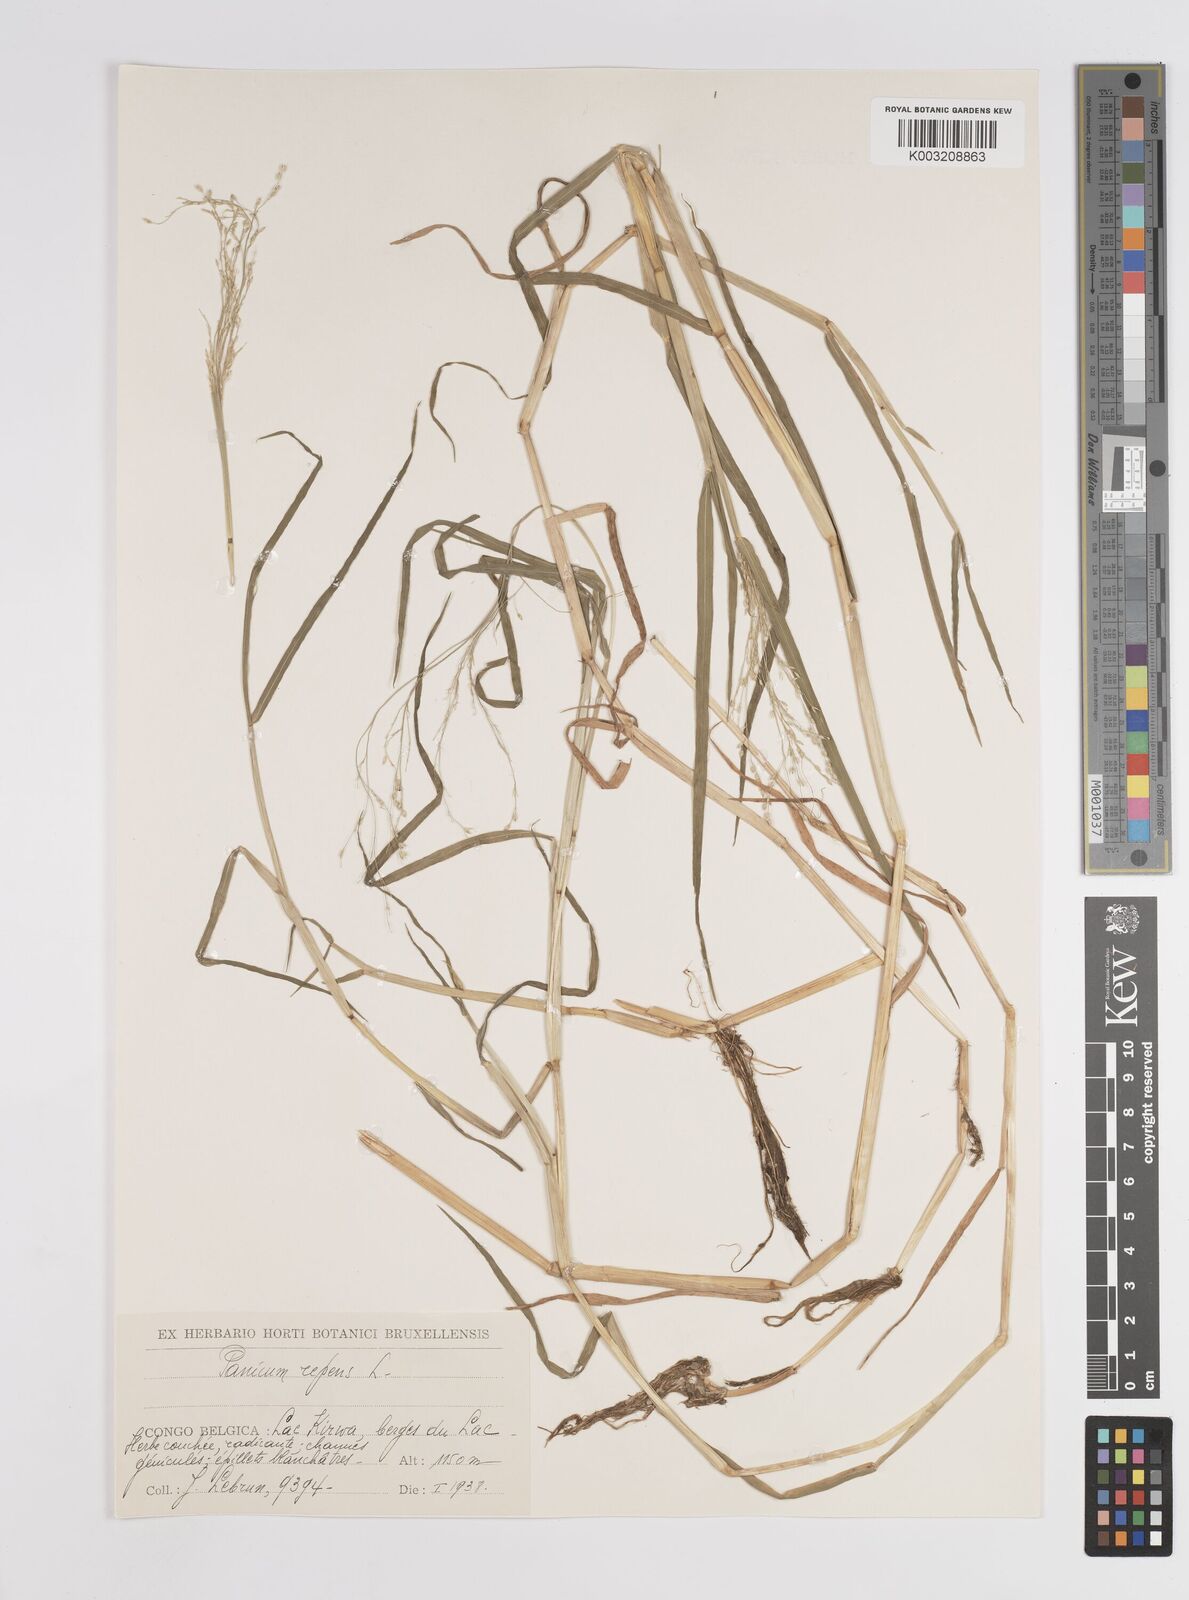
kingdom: Plantae
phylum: Tracheophyta
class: Liliopsida
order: Poales
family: Poaceae
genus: Panicum
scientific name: Panicum hygrocharis
